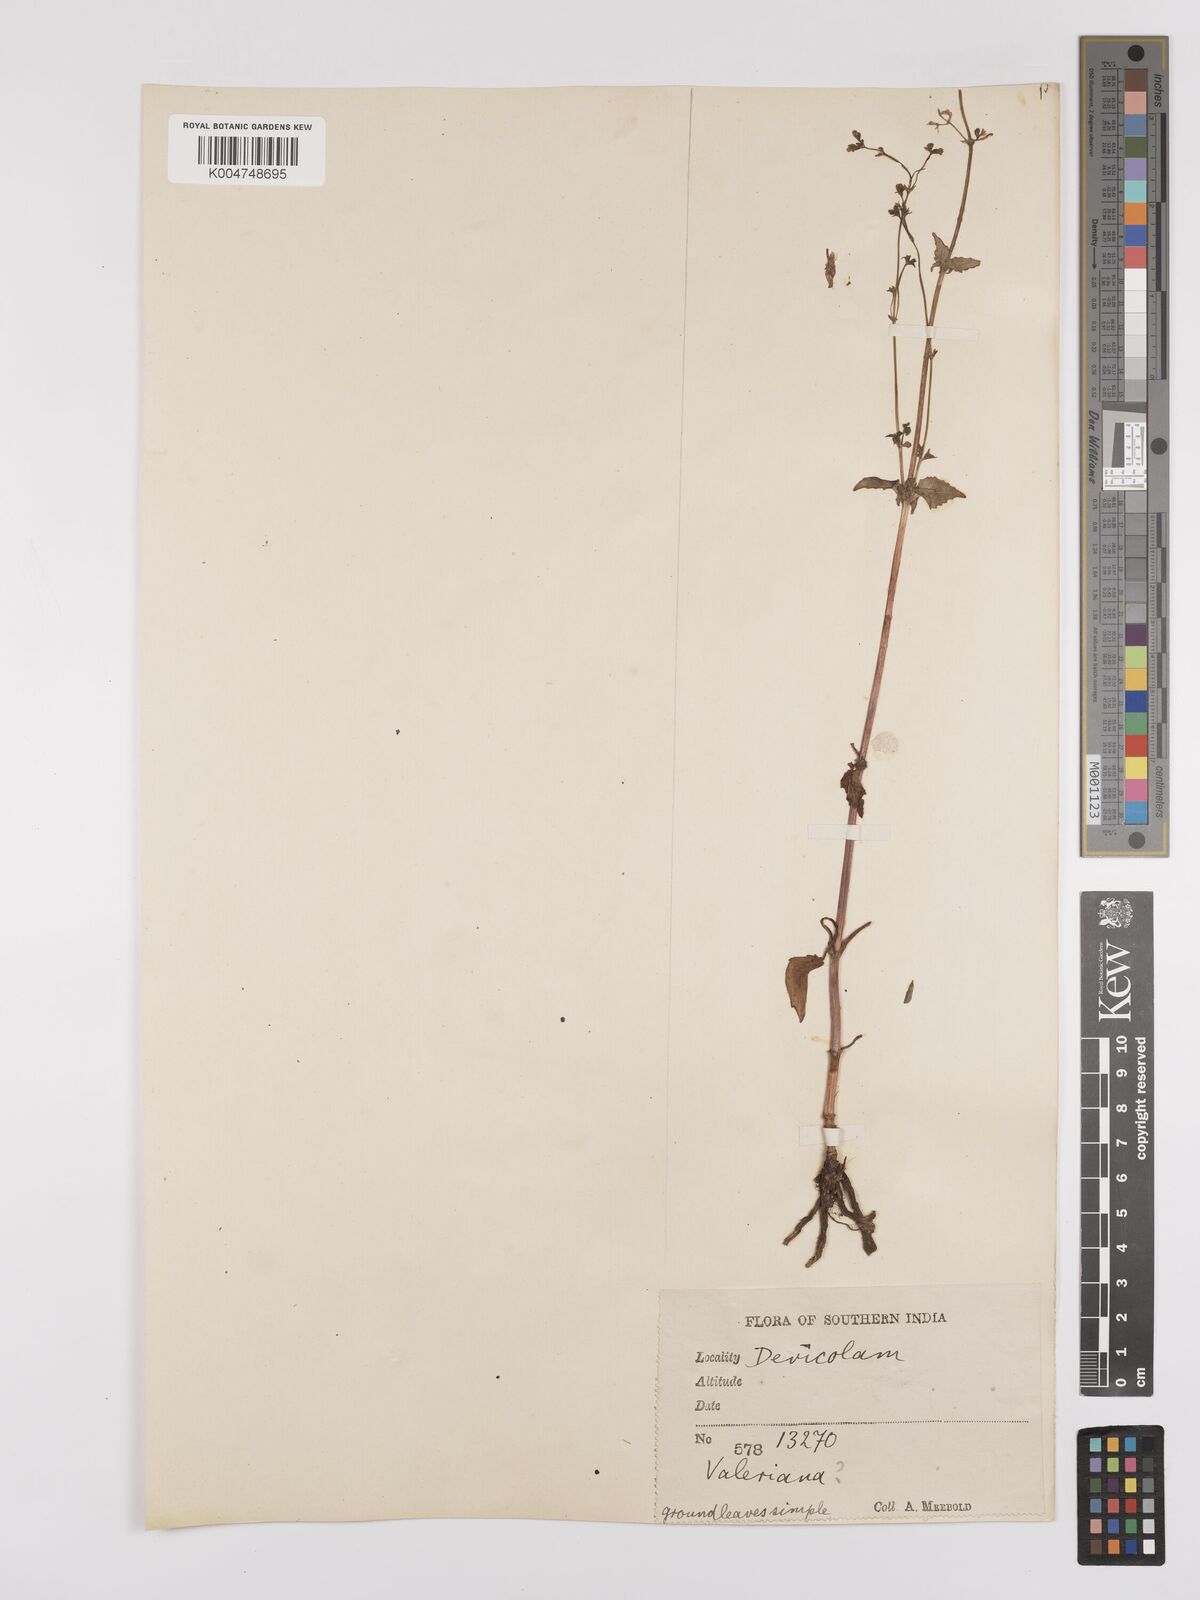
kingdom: Plantae
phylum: Tracheophyta
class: Magnoliopsida
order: Dipsacales
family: Caprifoliaceae
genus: Valeriana
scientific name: Valeriana
